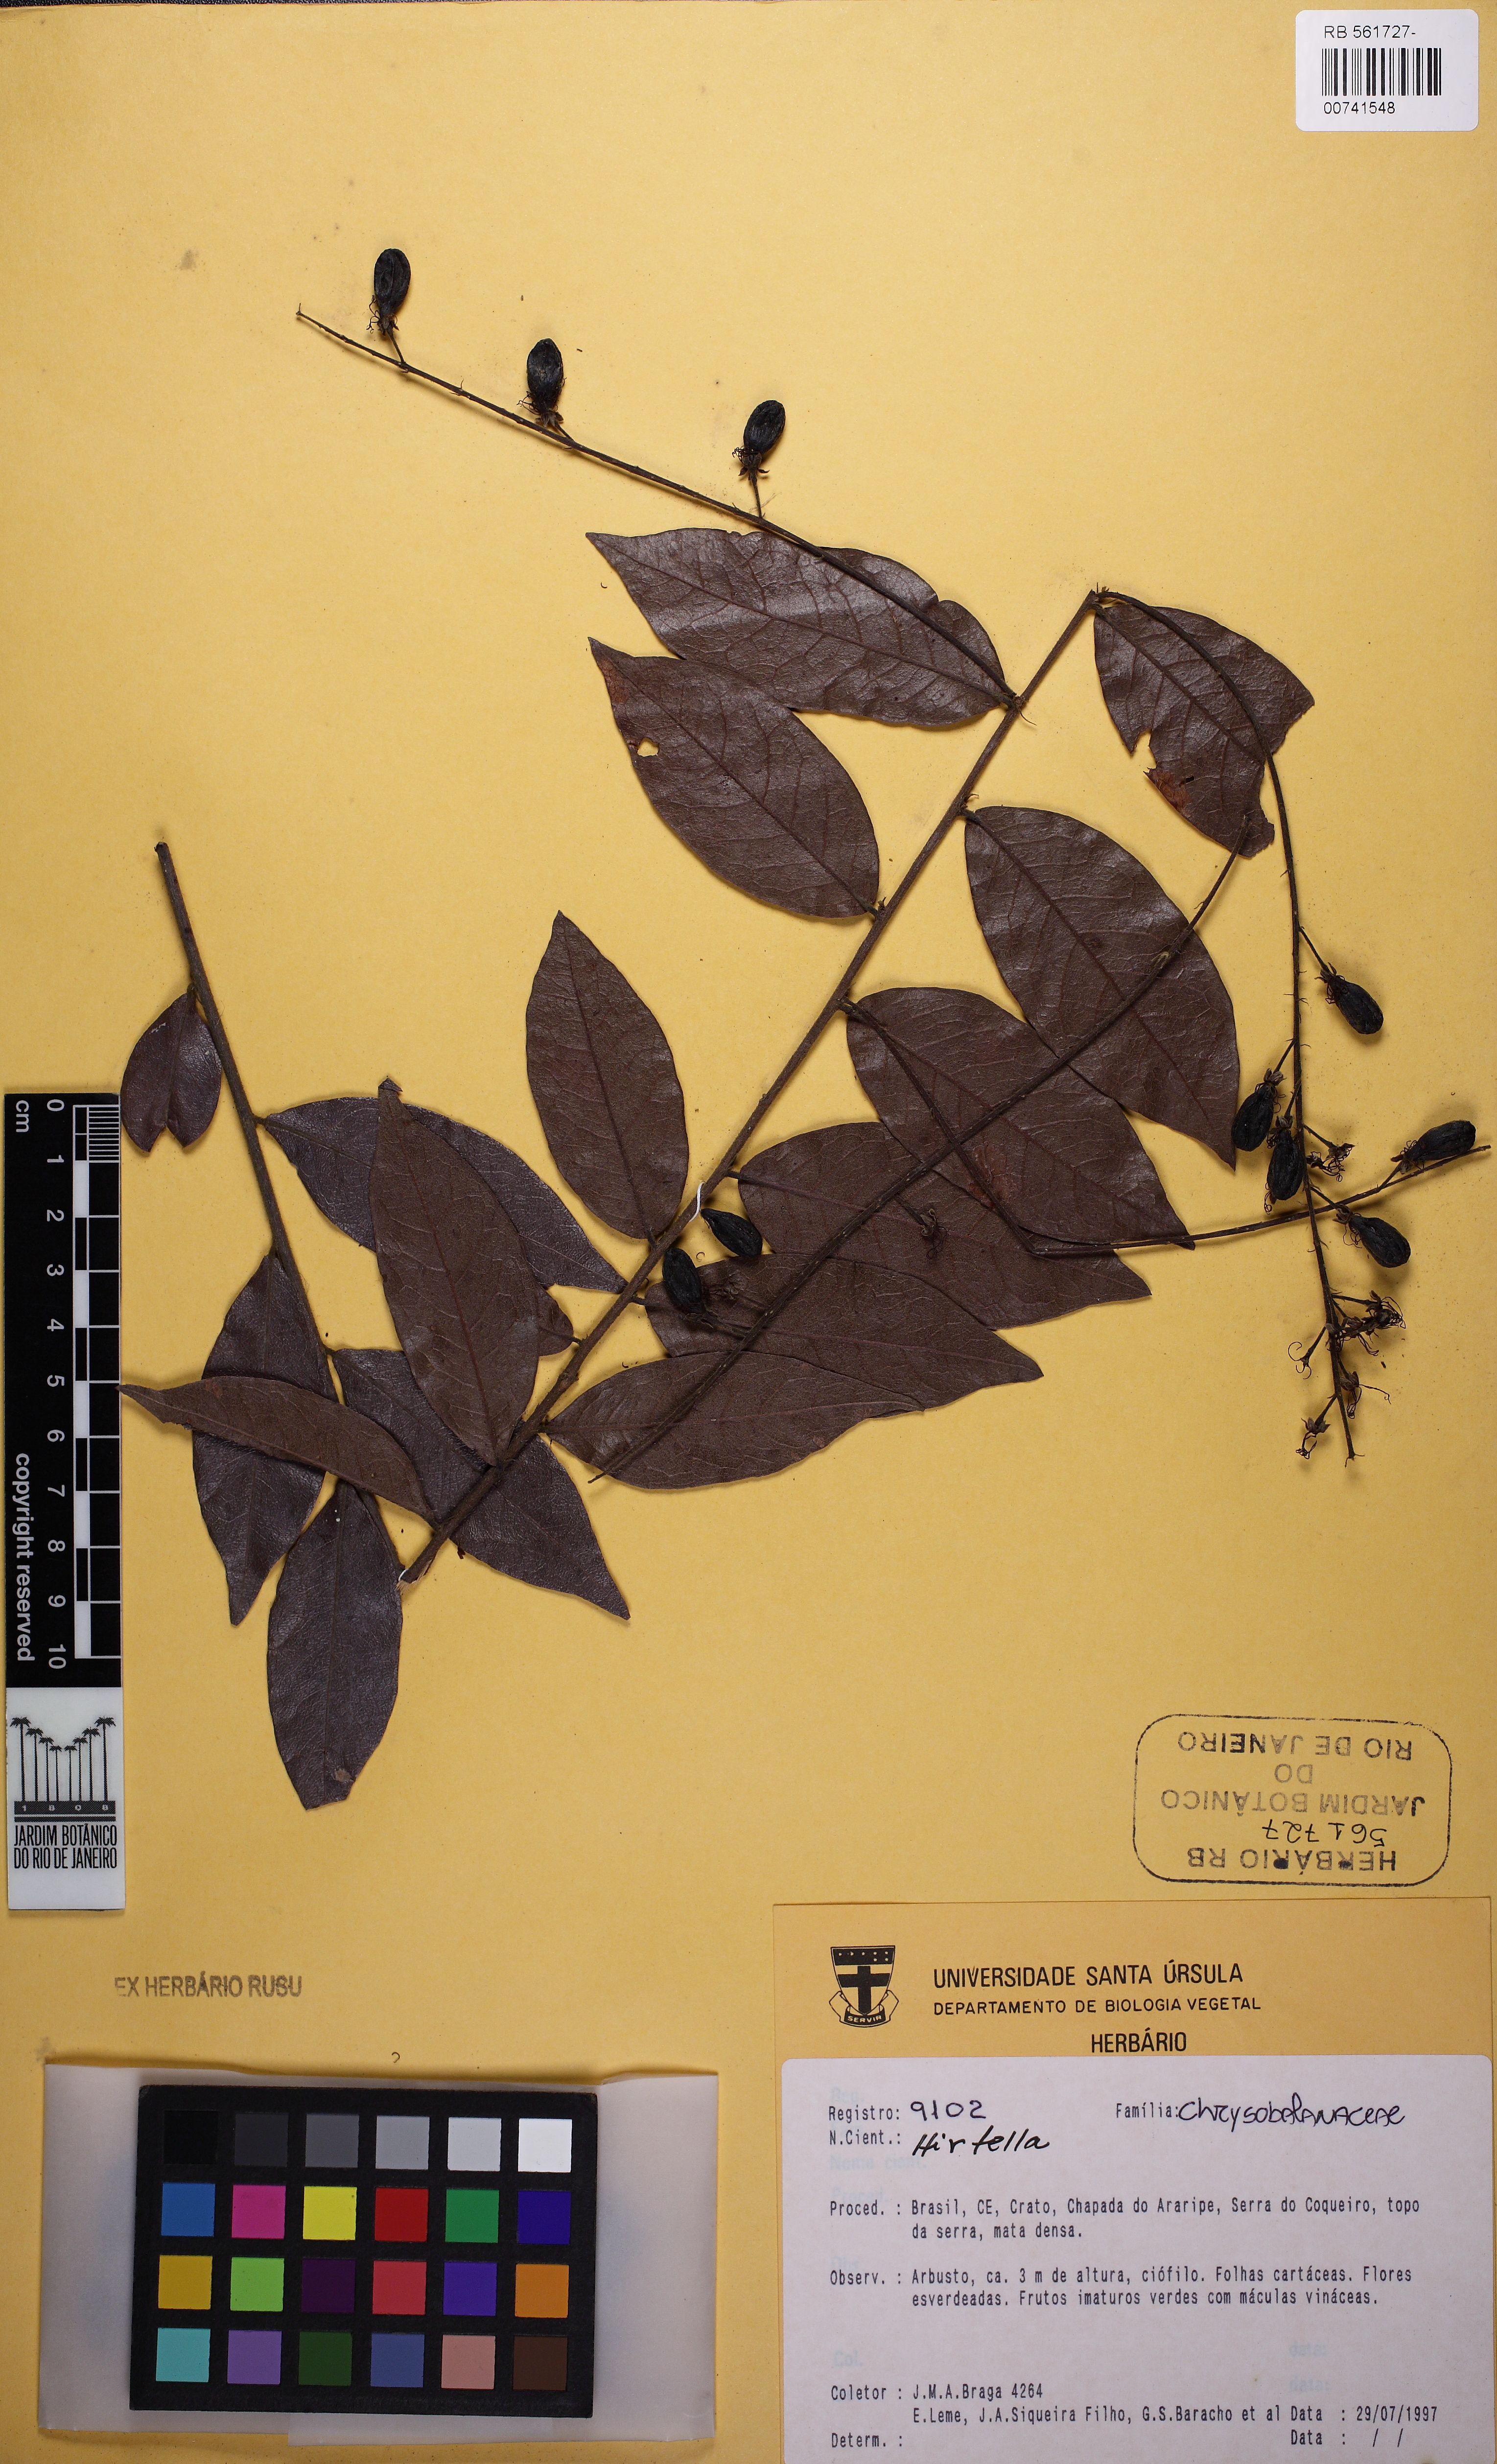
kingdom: Plantae
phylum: Tracheophyta
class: Magnoliopsida
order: Malpighiales
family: Chrysobalanaceae
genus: Hirtella
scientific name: Hirtella racemosa
